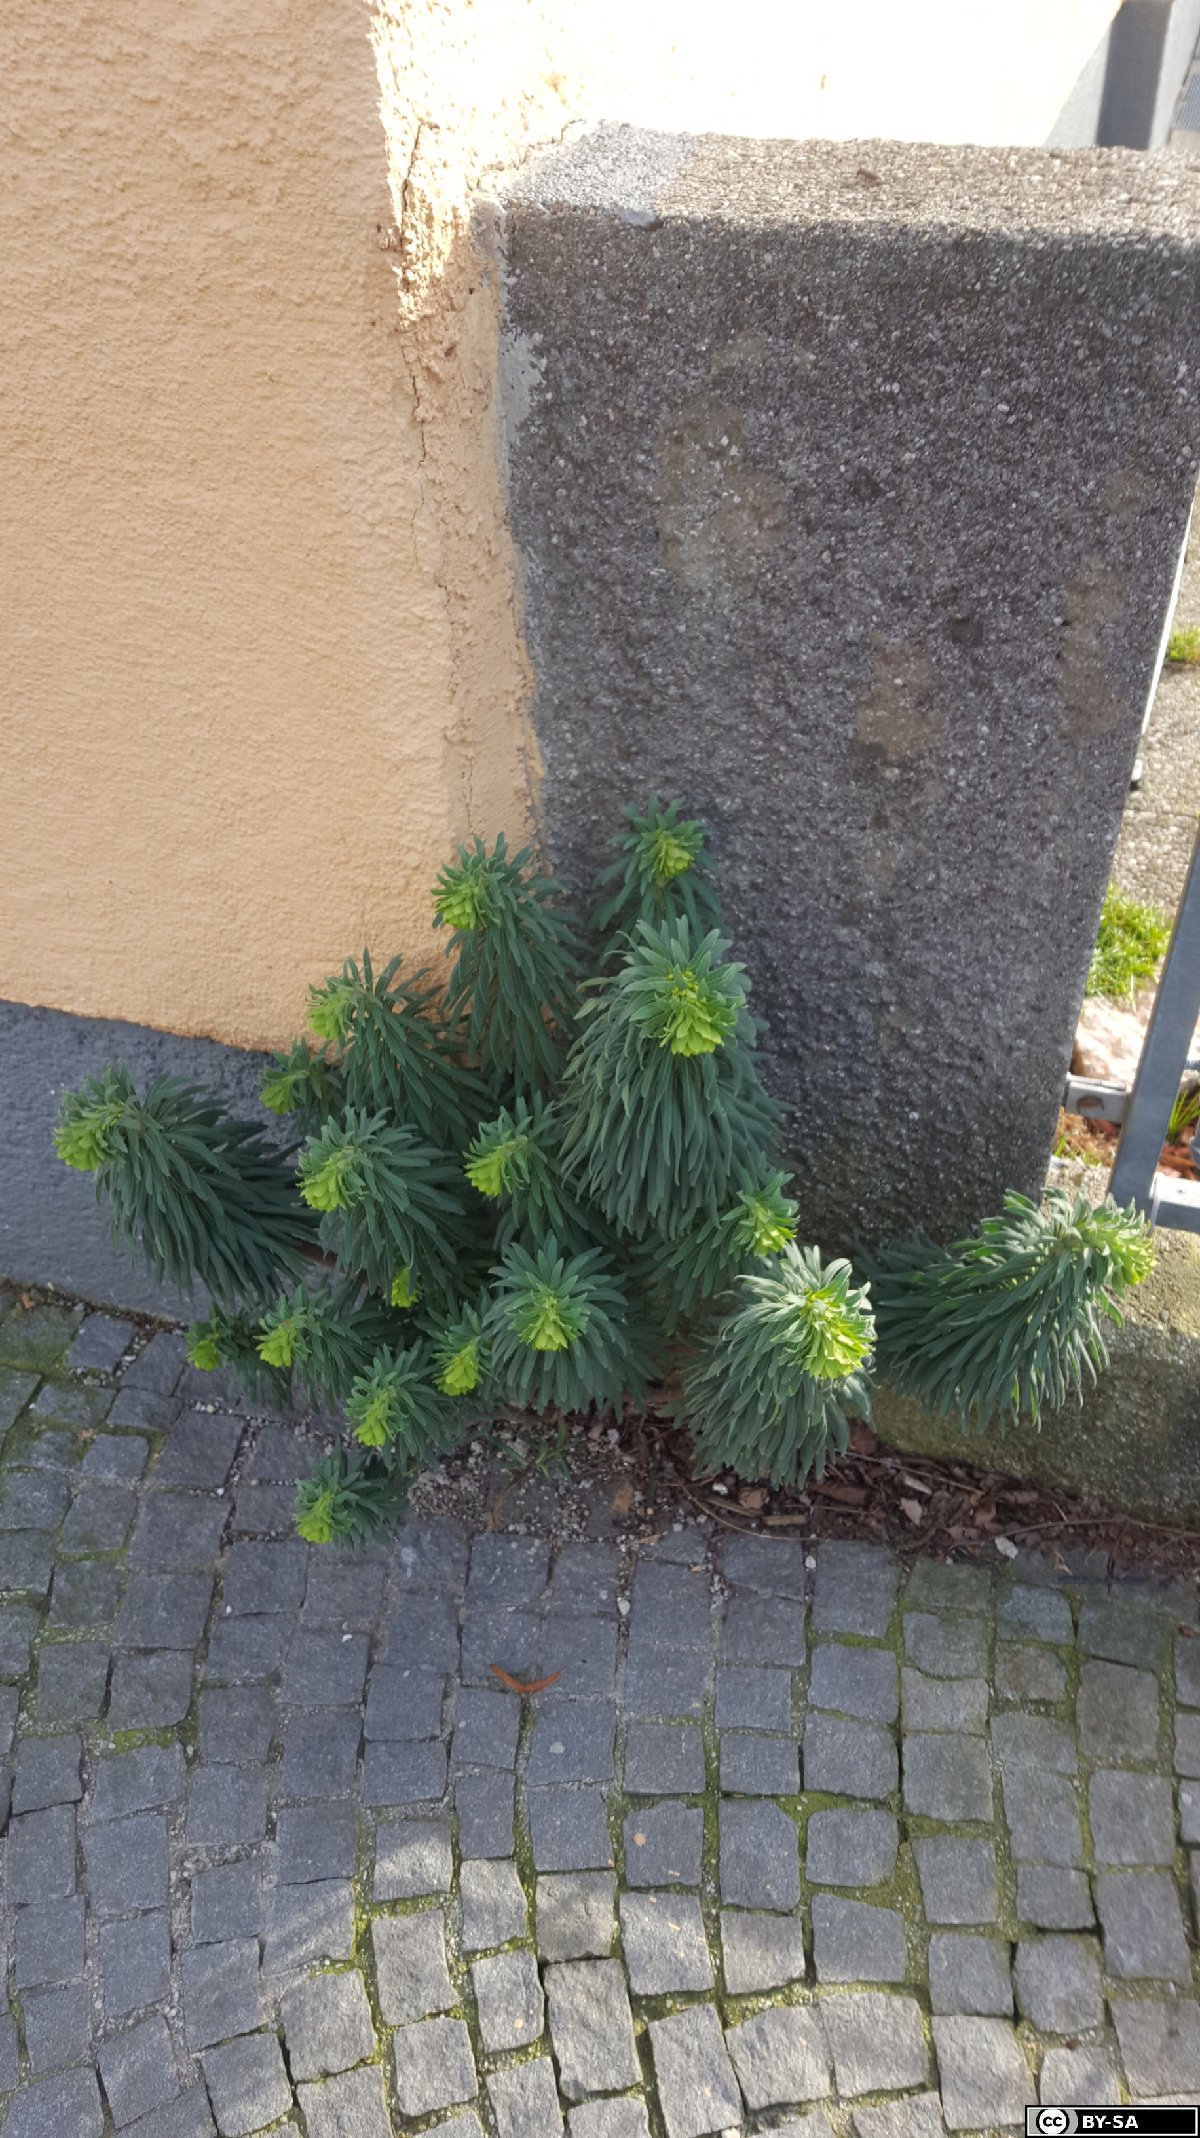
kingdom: Plantae
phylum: Tracheophyta
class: Magnoliopsida
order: Malpighiales
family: Euphorbiaceae
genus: Euphorbia
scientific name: Euphorbia characias
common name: Mediterranean spurge
